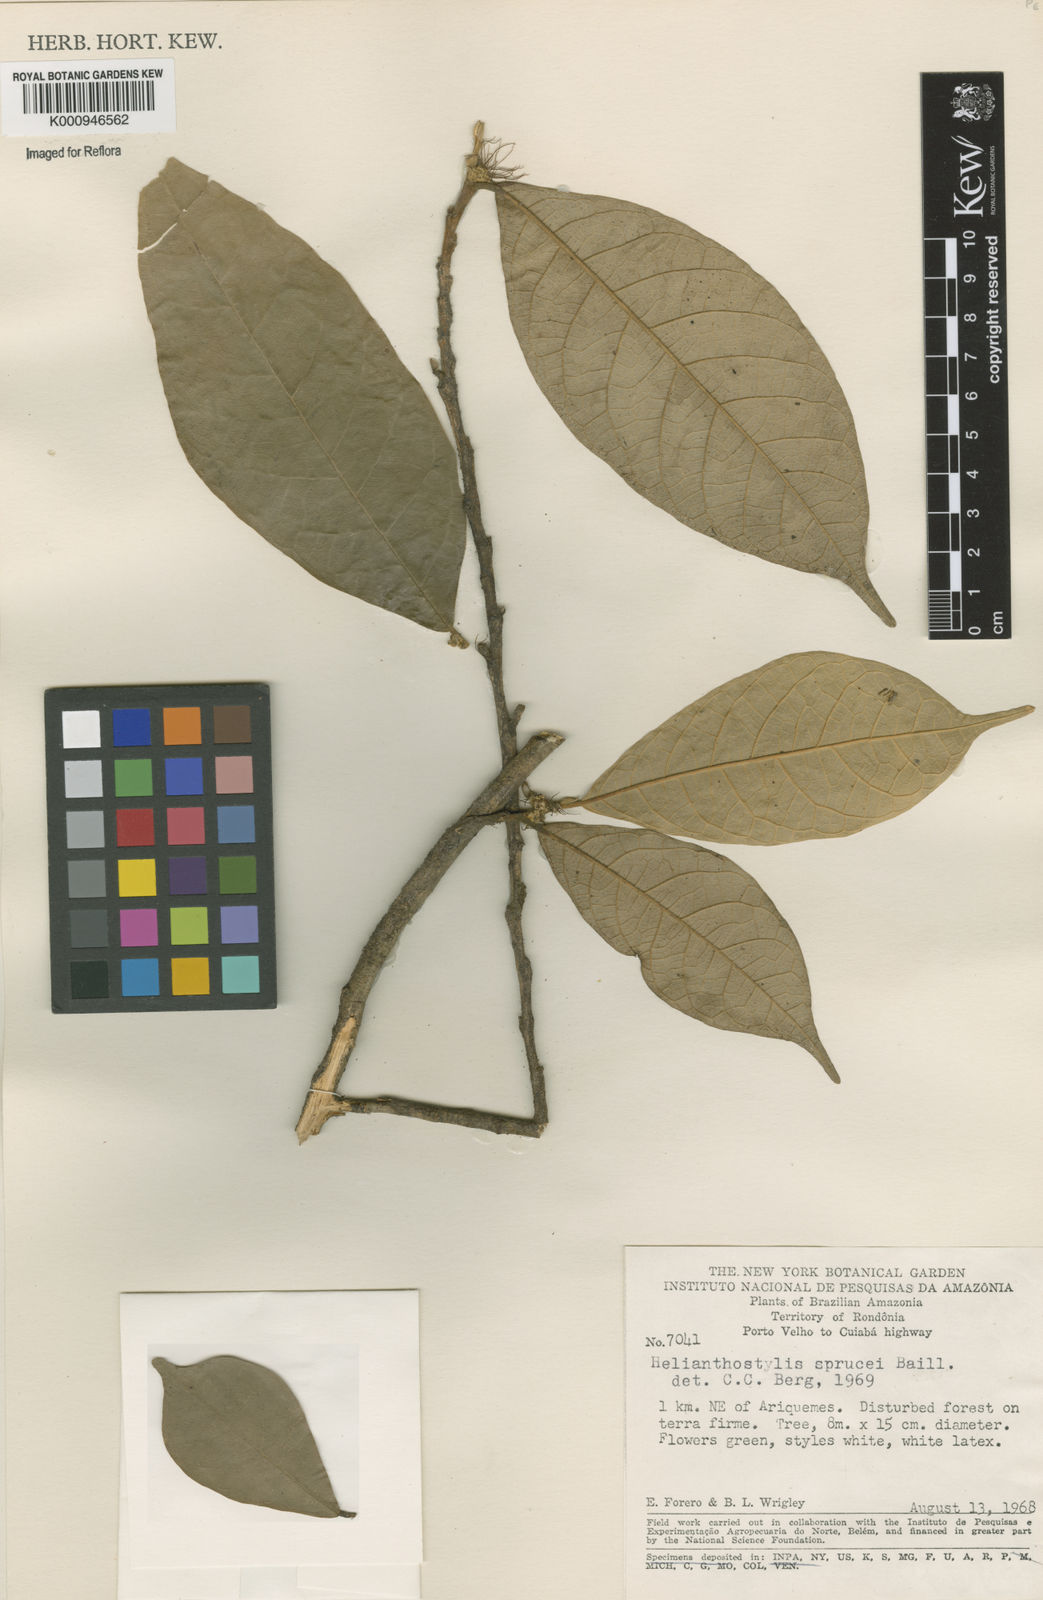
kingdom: Plantae
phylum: Tracheophyta
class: Magnoliopsida
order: Rosales
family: Moraceae
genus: Brosimum
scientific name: Brosimum sprucei
